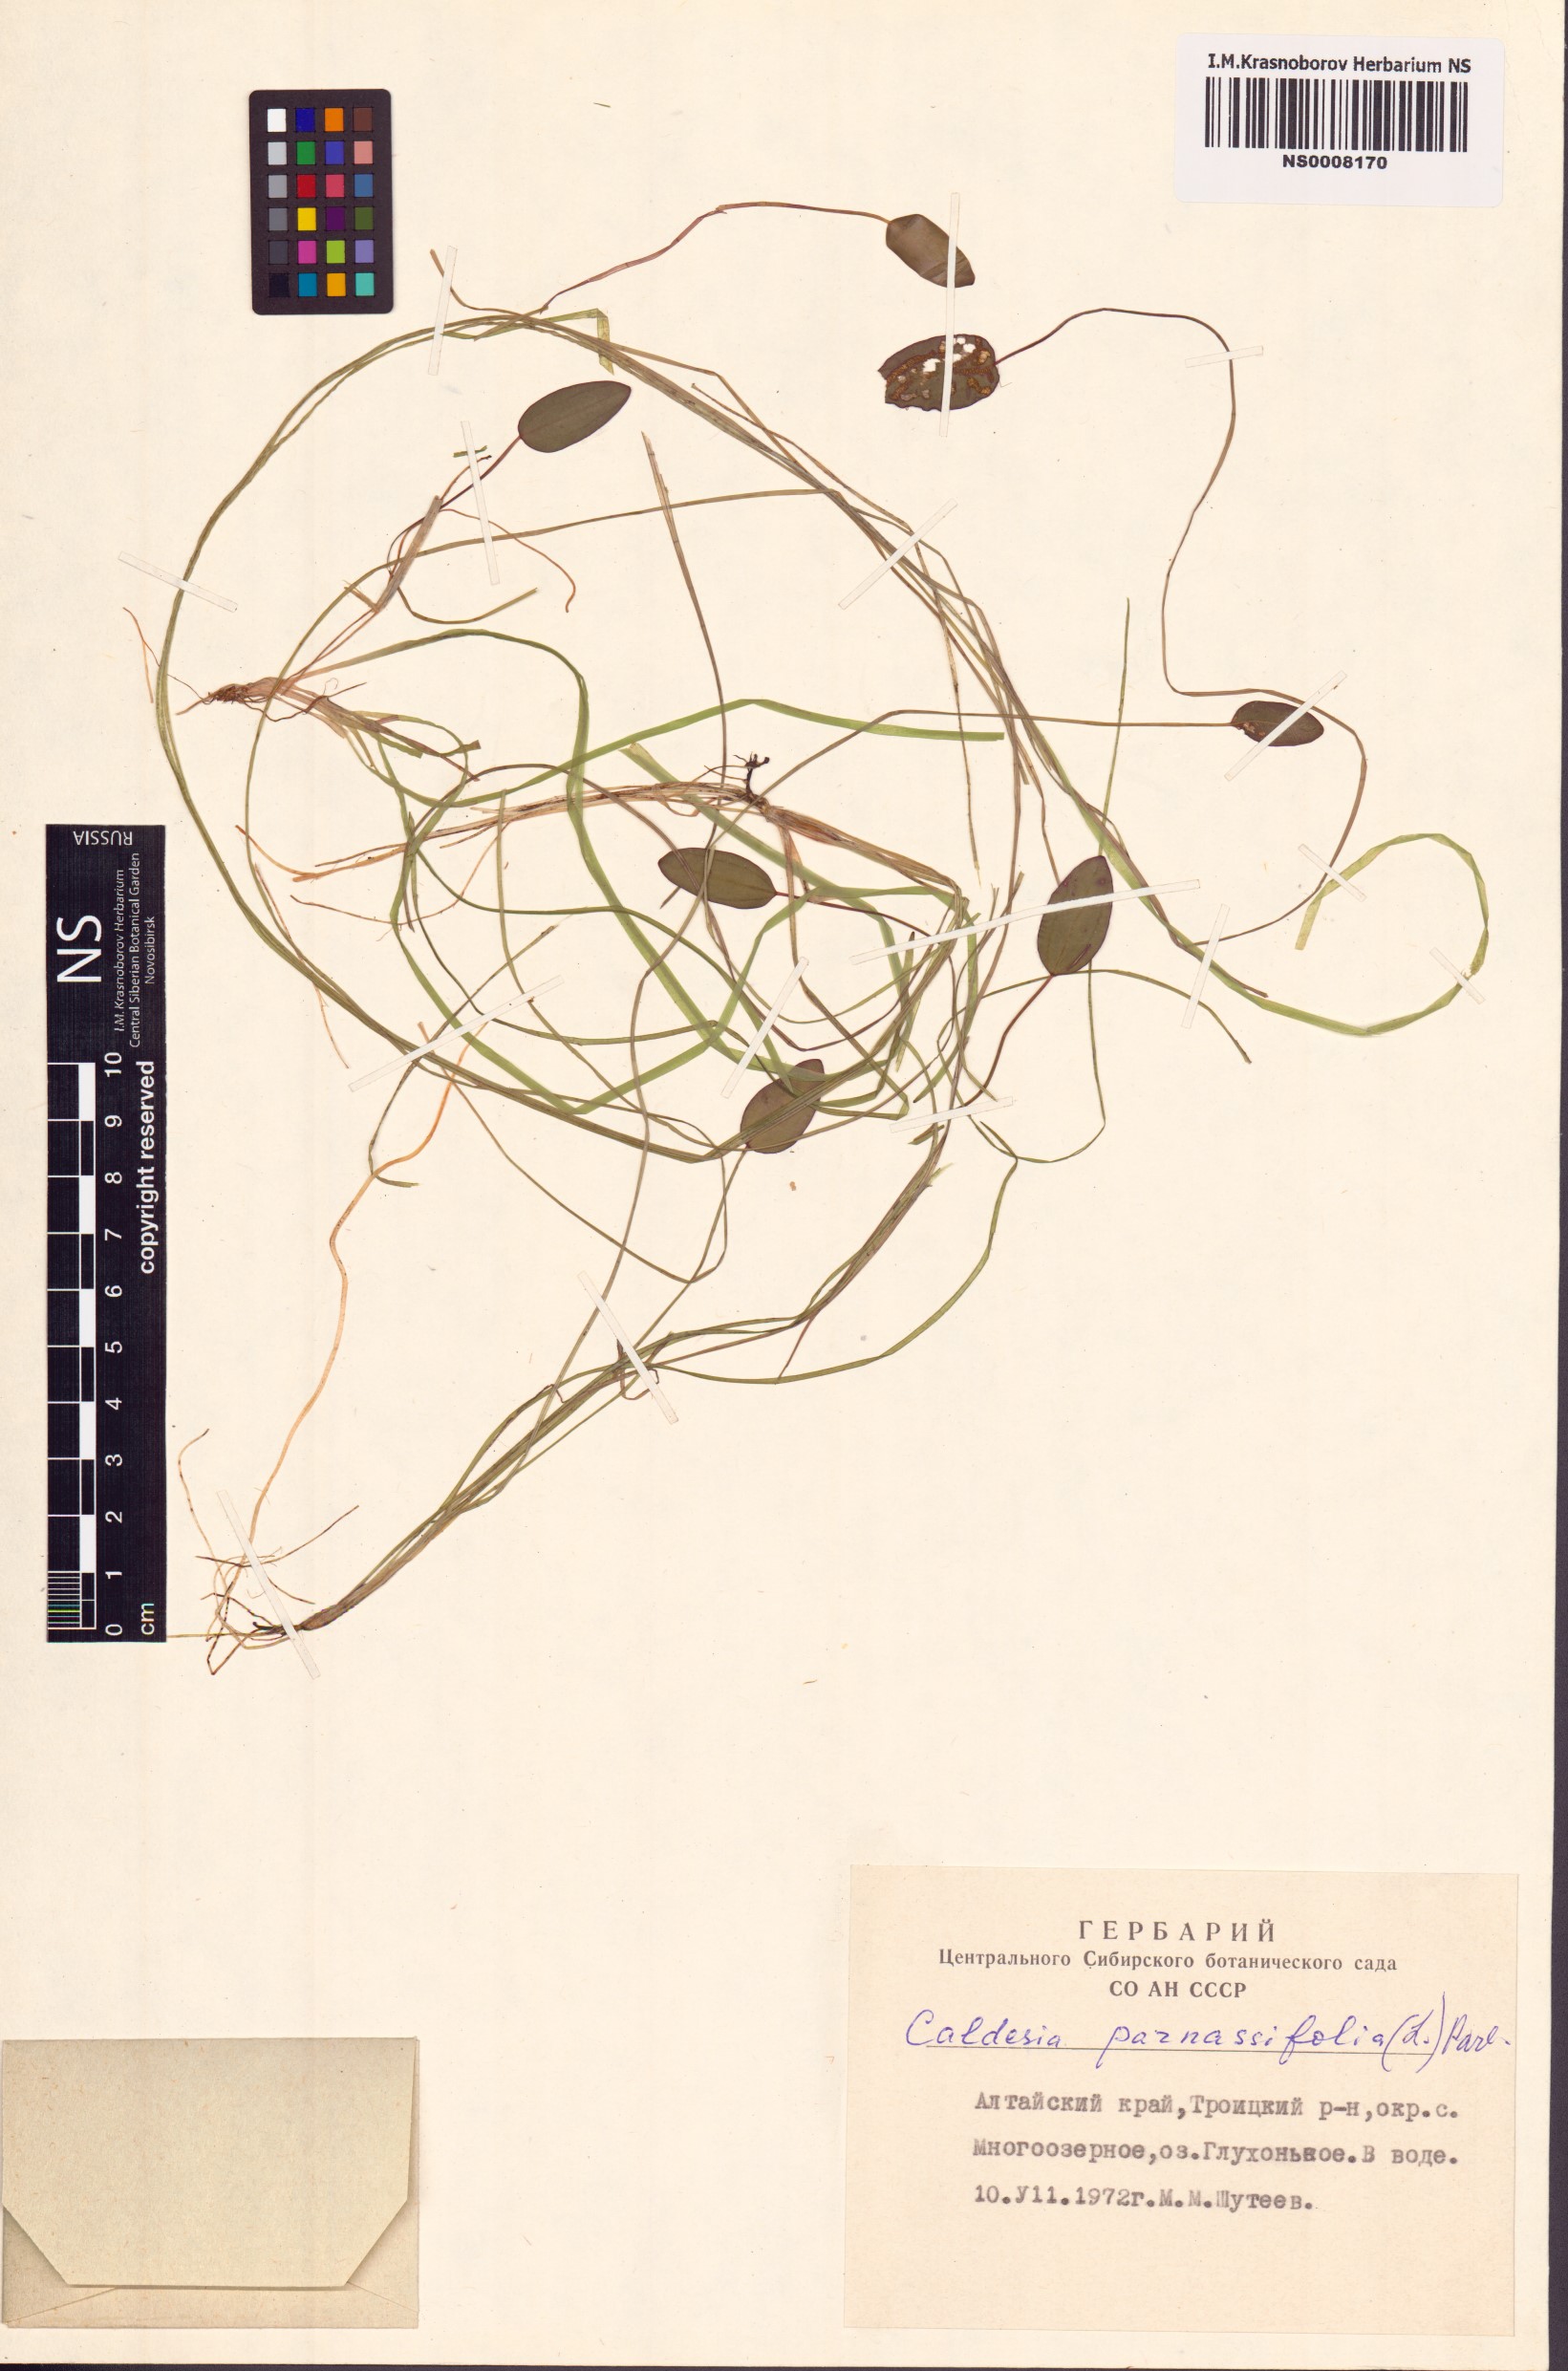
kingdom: Plantae
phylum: Tracheophyta
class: Liliopsida
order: Alismatales
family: Alismataceae
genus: Caldesia
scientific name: Caldesia parnassifolia
